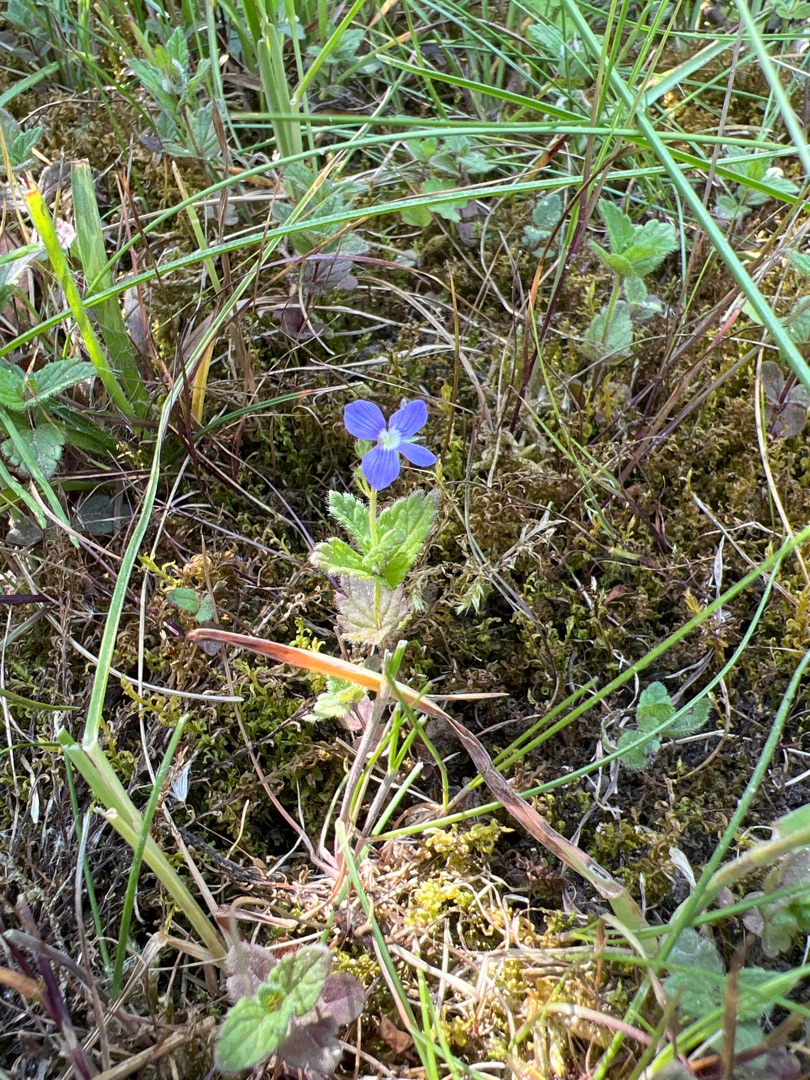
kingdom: Plantae
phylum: Tracheophyta
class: Magnoliopsida
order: Lamiales
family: Plantaginaceae
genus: Veronica
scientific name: Veronica chamaedrys
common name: Tveskægget ærenpris
